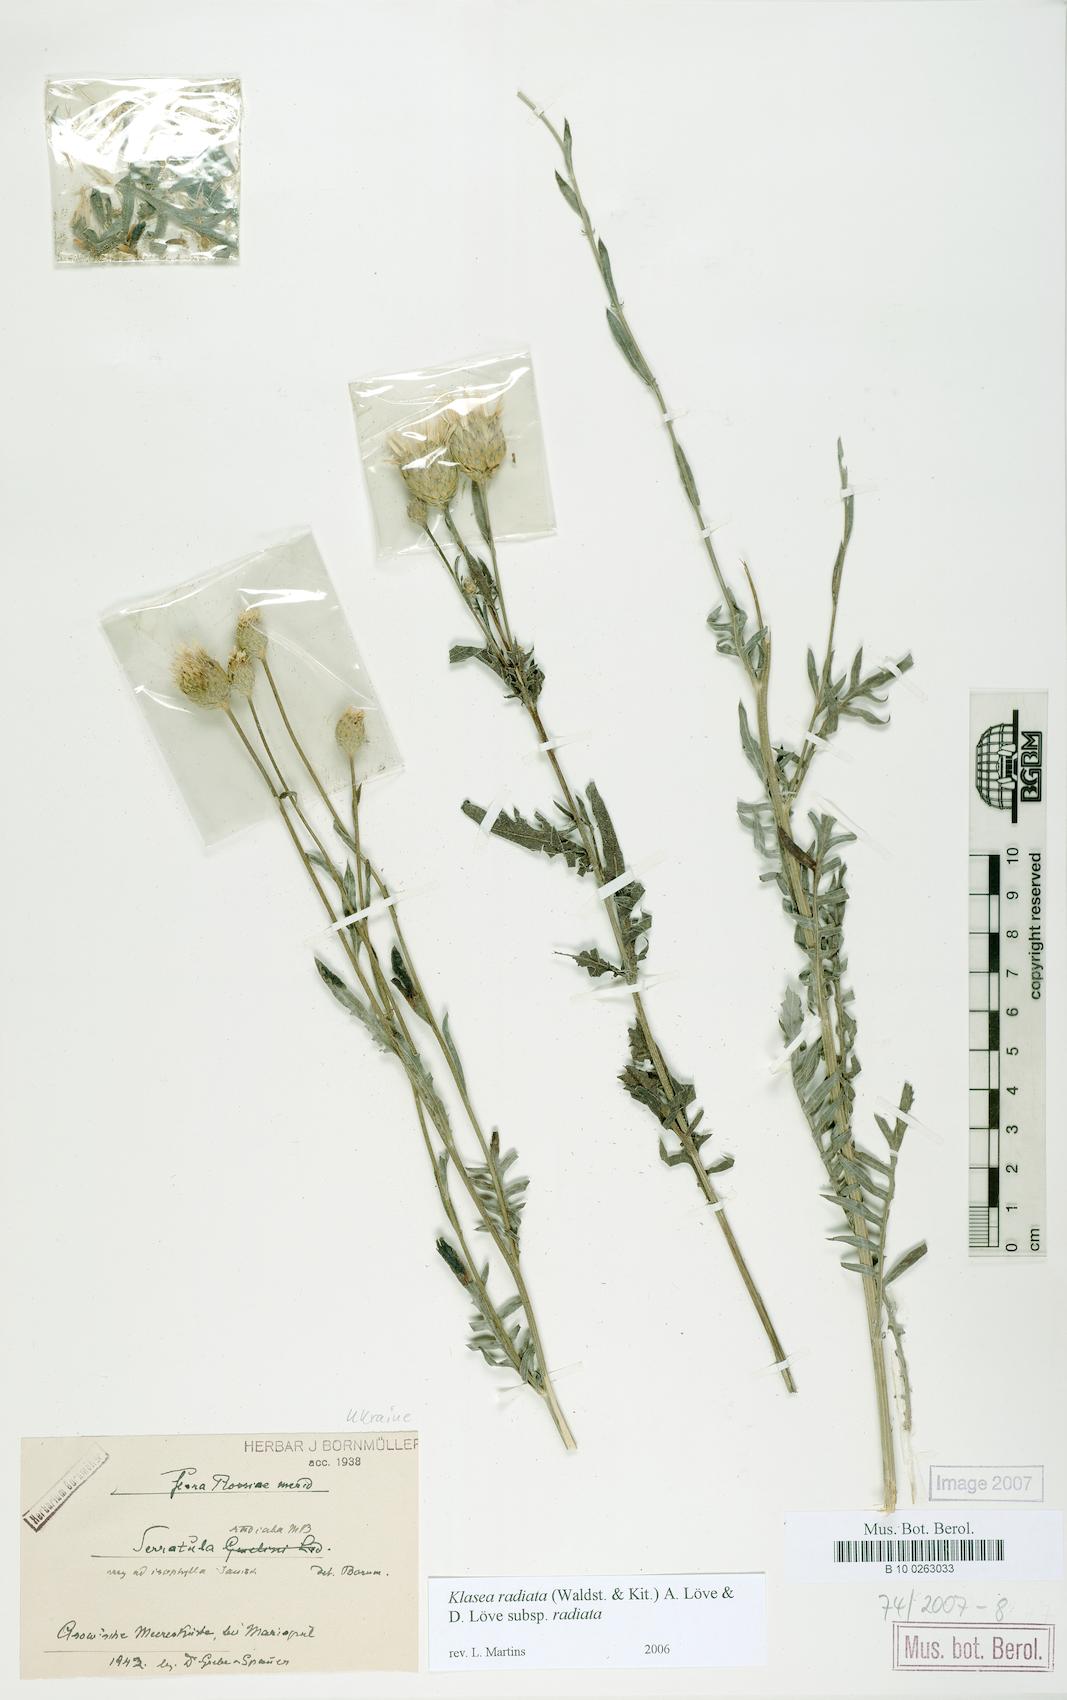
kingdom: Plantae
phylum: Tracheophyta
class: Magnoliopsida
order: Asterales
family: Asteraceae
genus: Klasea
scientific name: Klasea radiata
